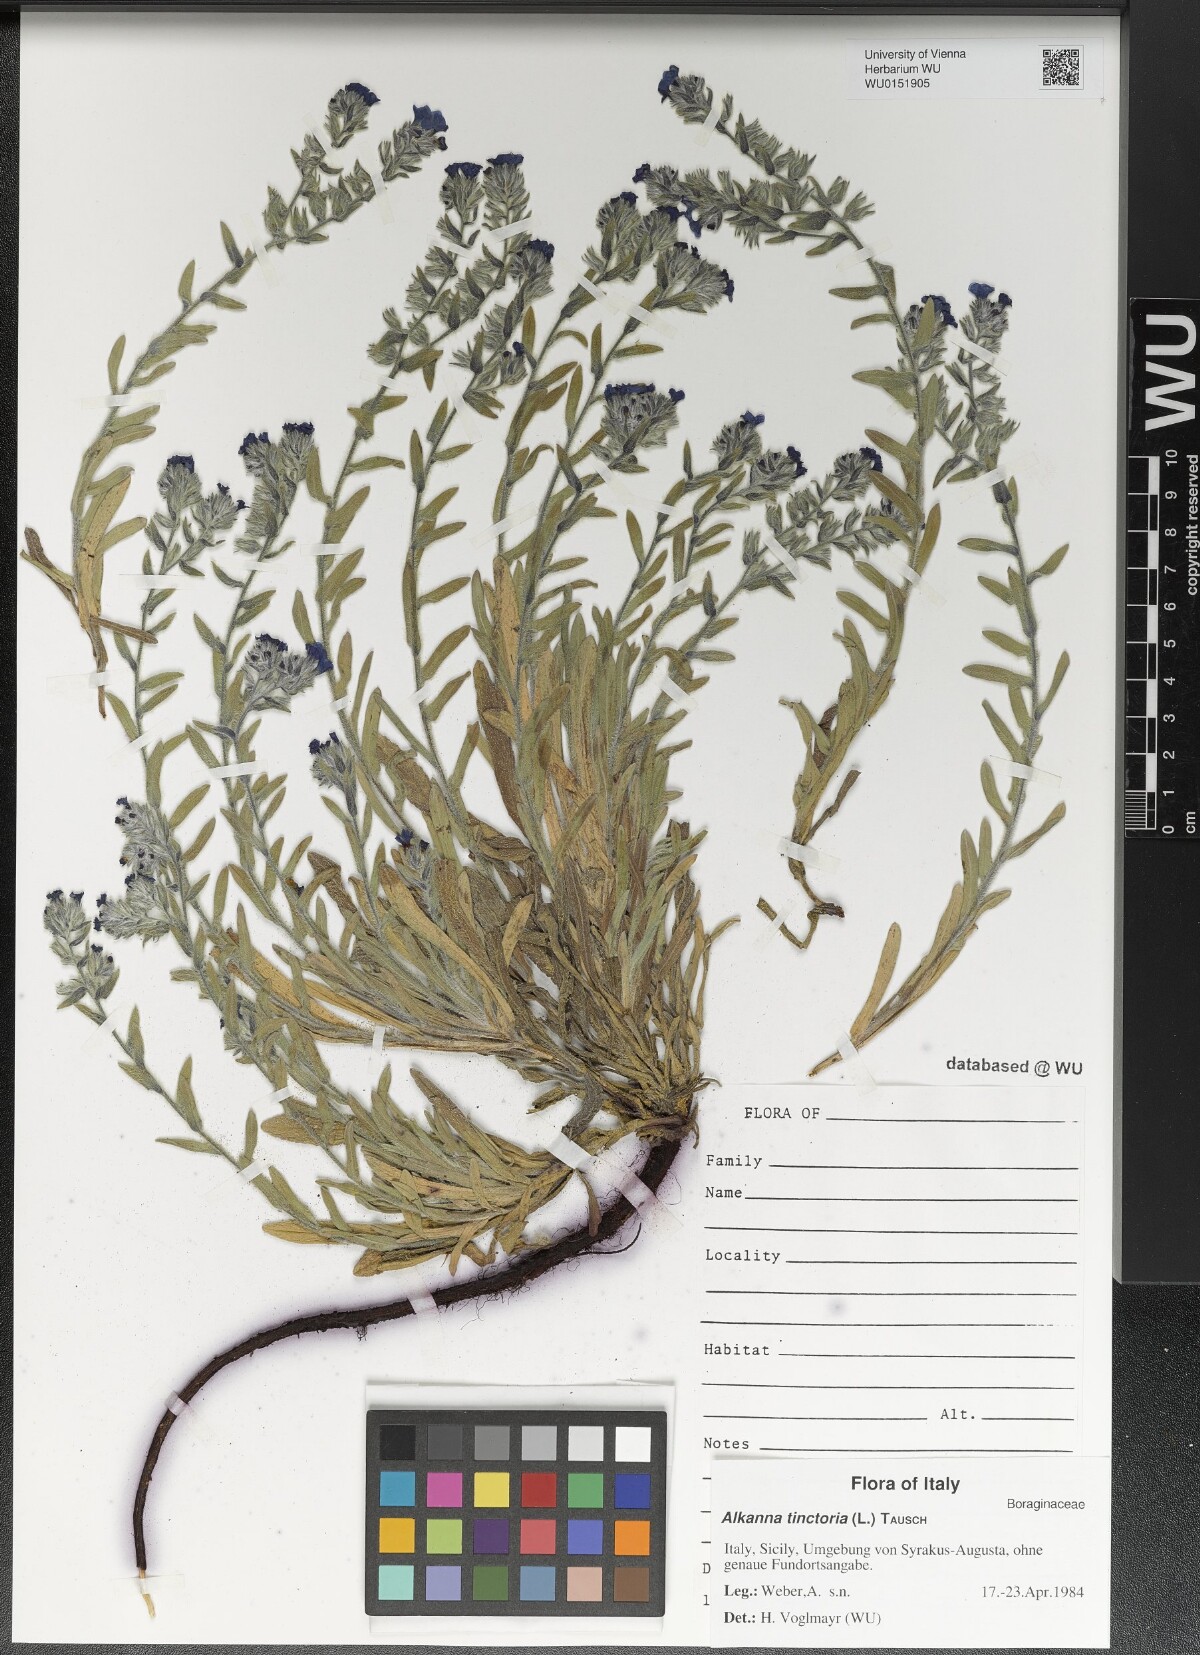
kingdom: Plantae
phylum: Tracheophyta
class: Magnoliopsida
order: Boraginales
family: Boraginaceae
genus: Alkanna
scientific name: Alkanna tinctoria
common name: Dyer's-alkanet
